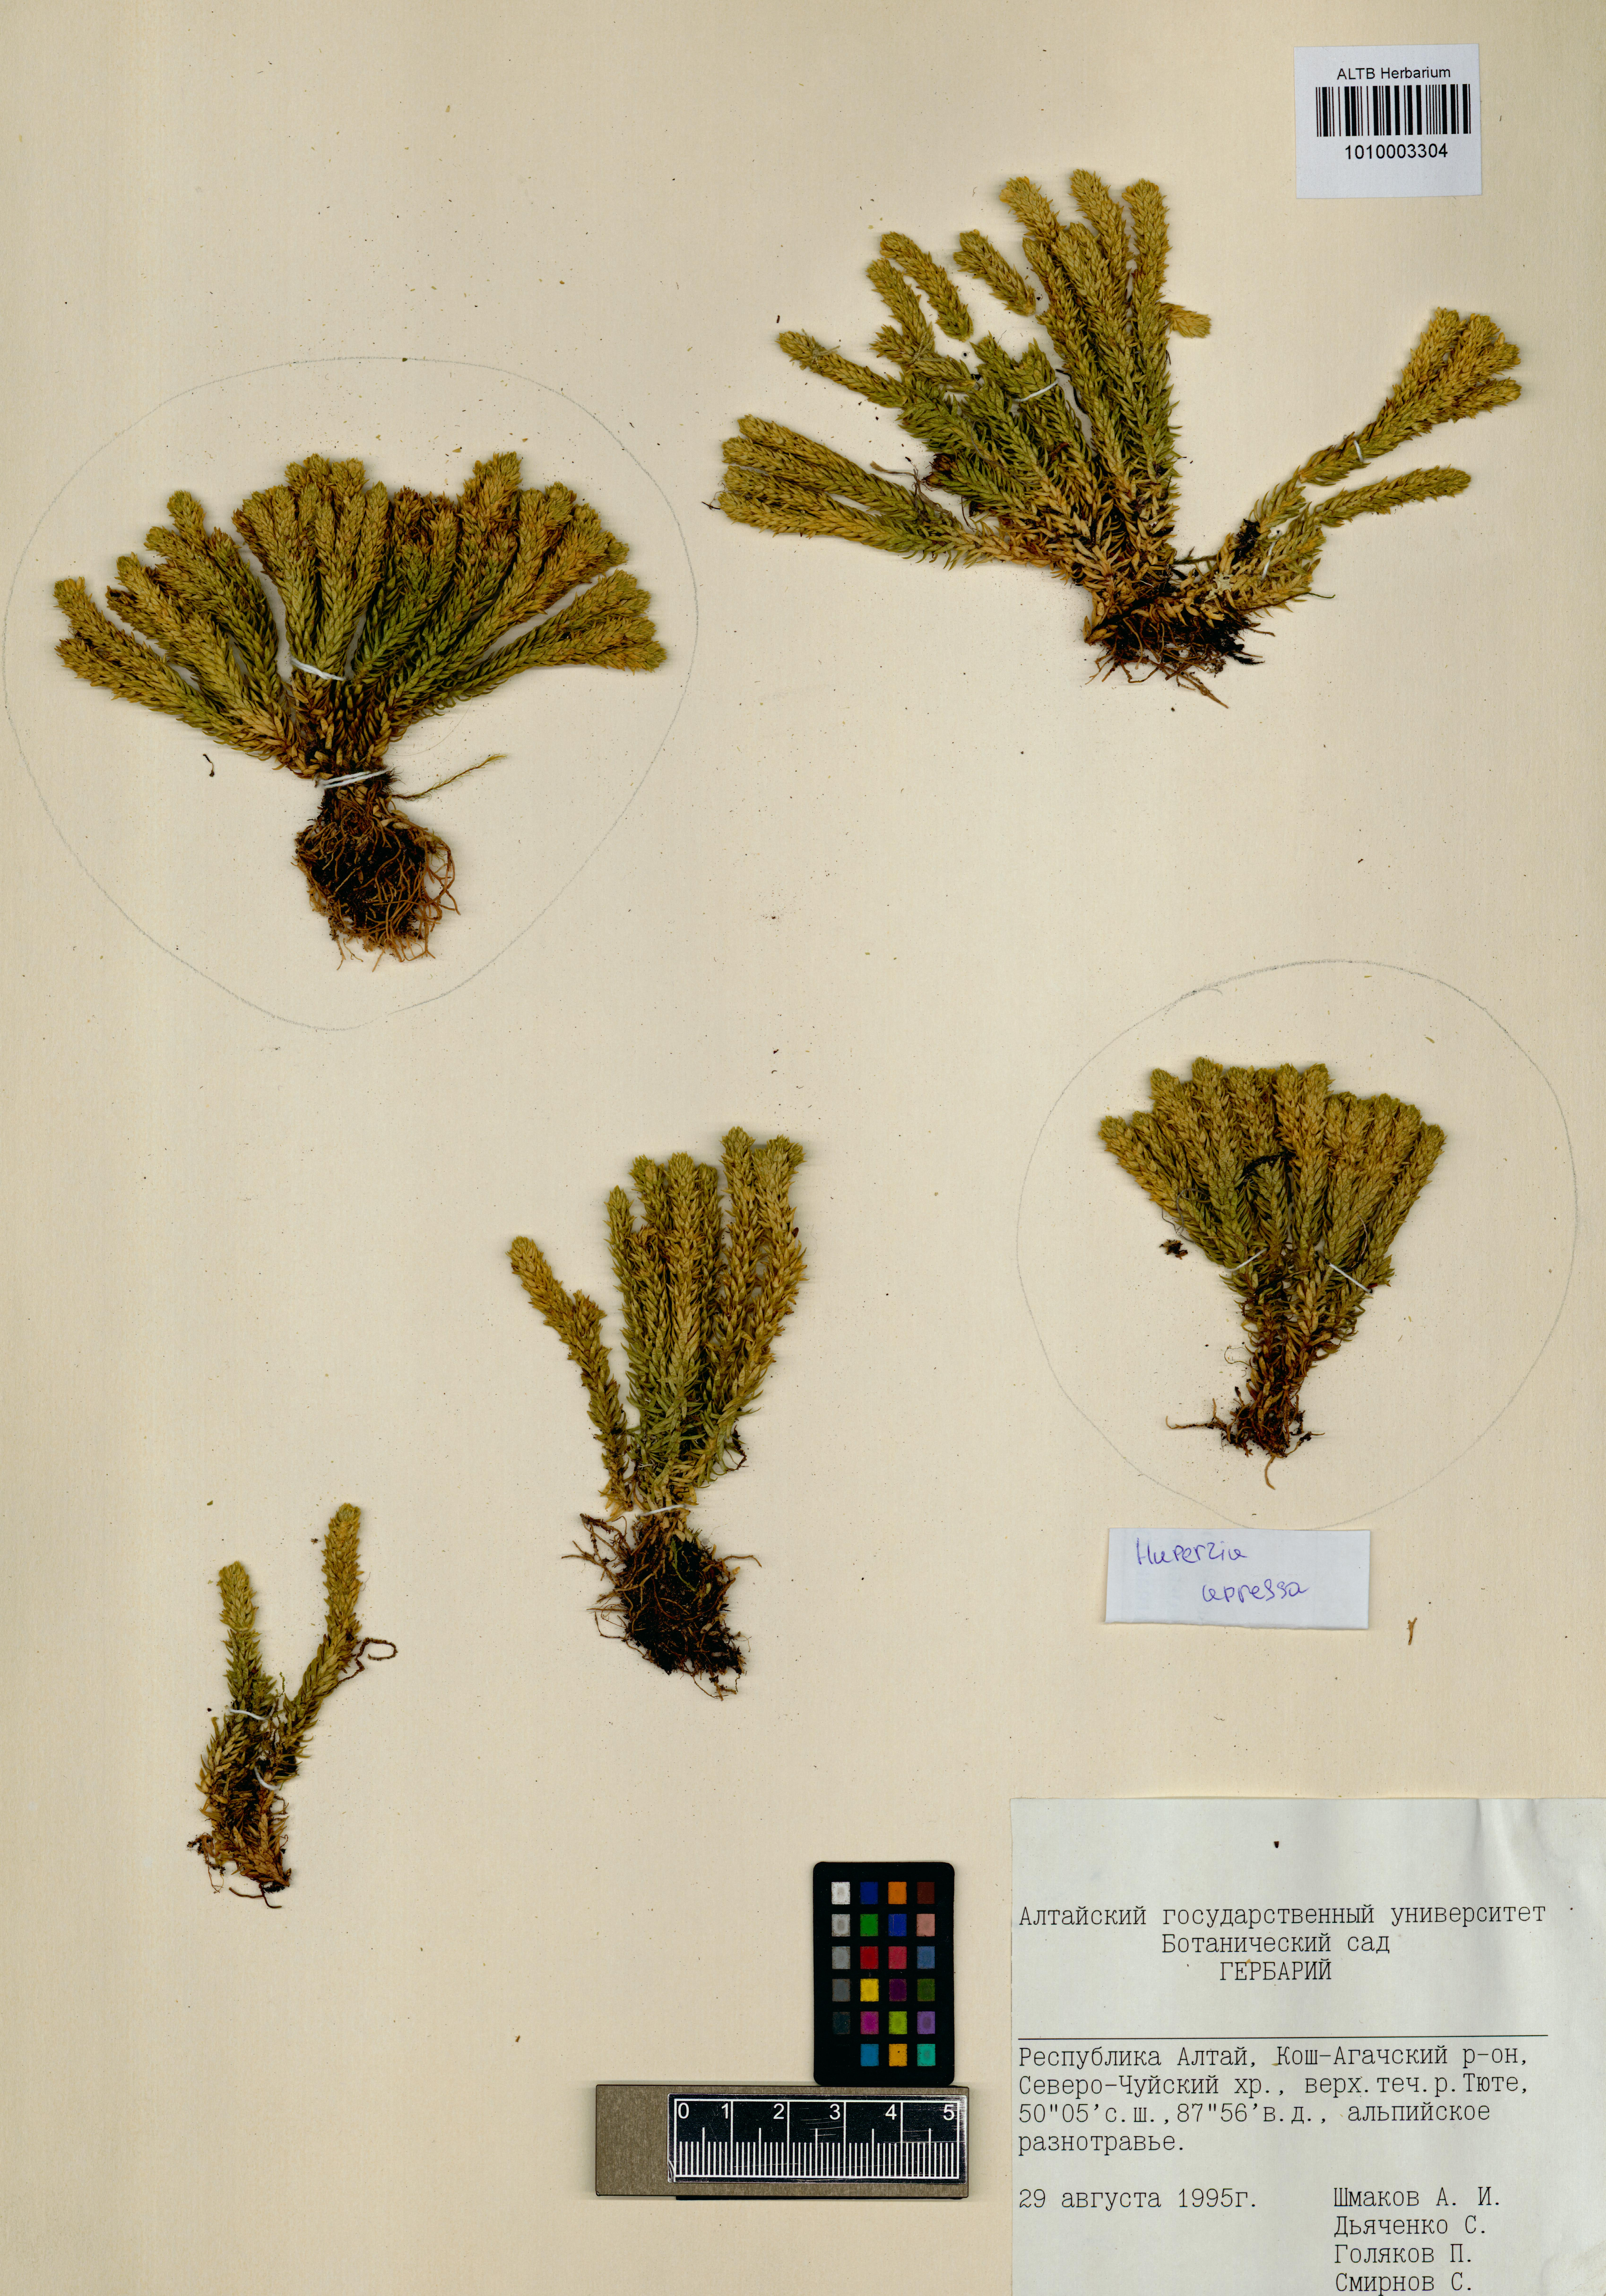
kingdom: Plantae
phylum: Tracheophyta
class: Lycopodiopsida
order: Lycopodiales
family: Lycopodiaceae
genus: Huperzia
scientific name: Huperzia selago
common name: Northern firmoss
